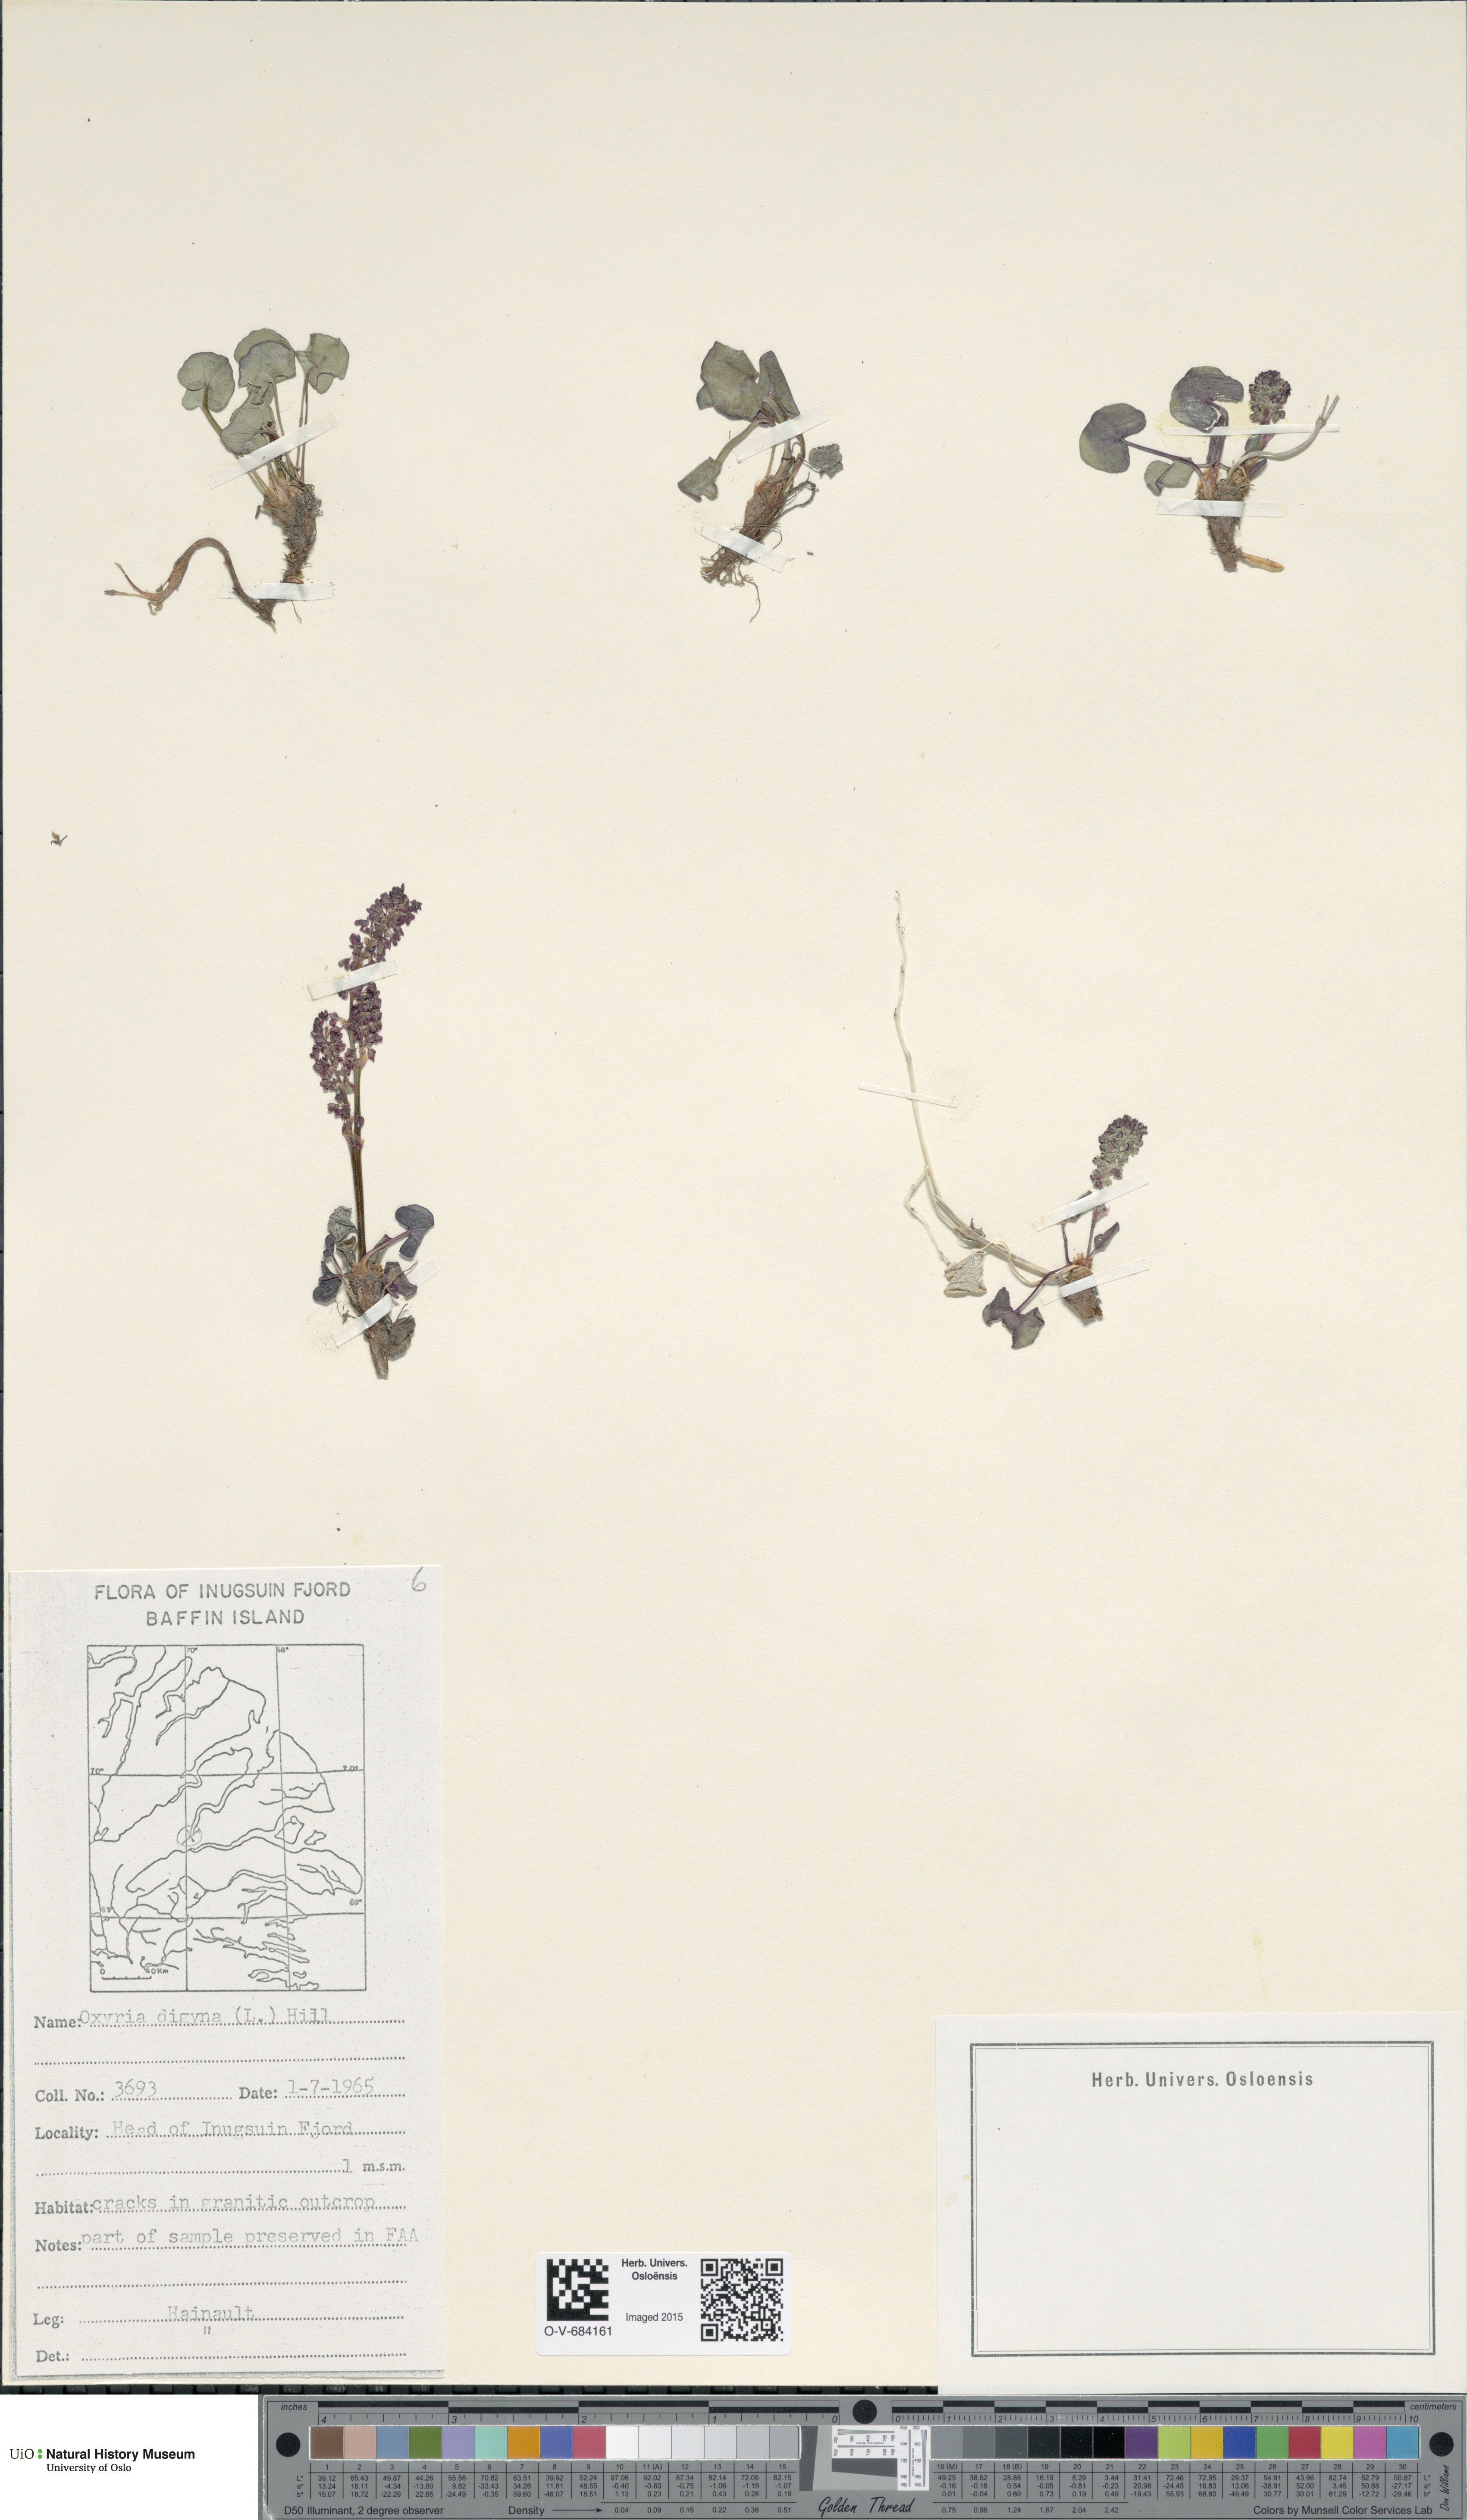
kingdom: Plantae
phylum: Tracheophyta
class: Magnoliopsida
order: Caryophyllales
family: Polygonaceae
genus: Oxyria
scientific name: Oxyria digyna
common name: Alpine mountain-sorrel
